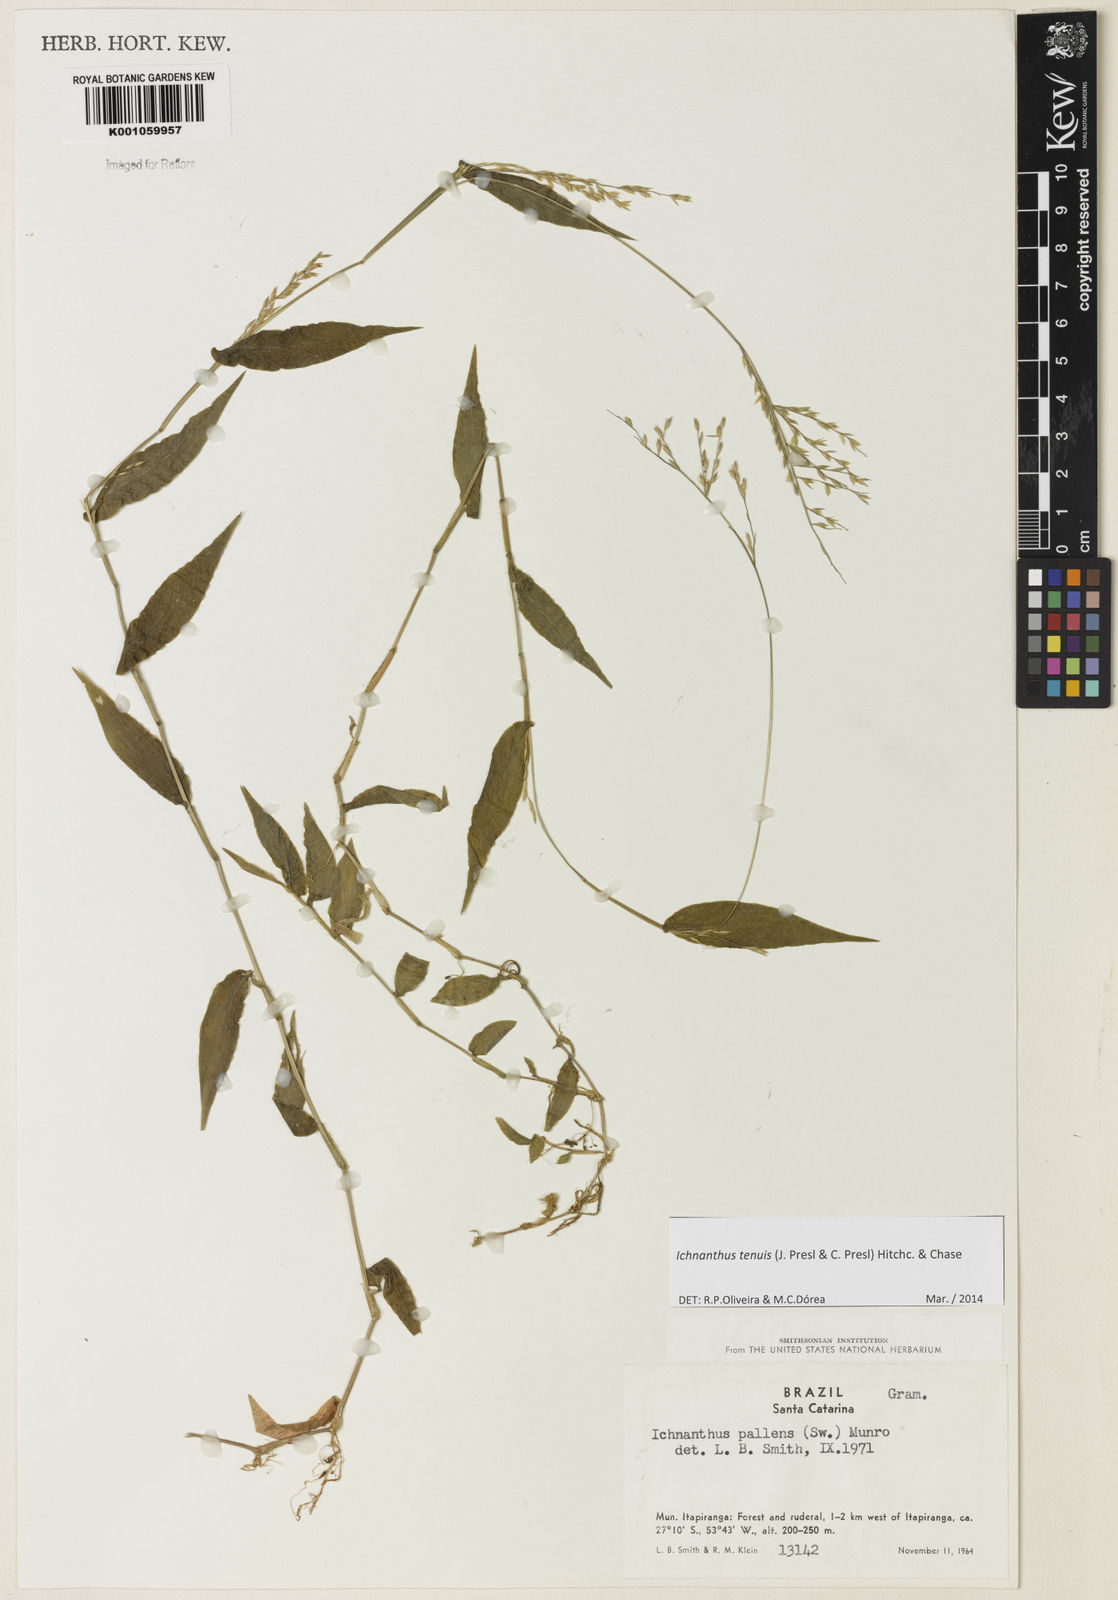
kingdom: Plantae
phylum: Tracheophyta
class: Liliopsida
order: Poales
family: Poaceae
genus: Ichnanthus
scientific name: Ichnanthus tenuis
